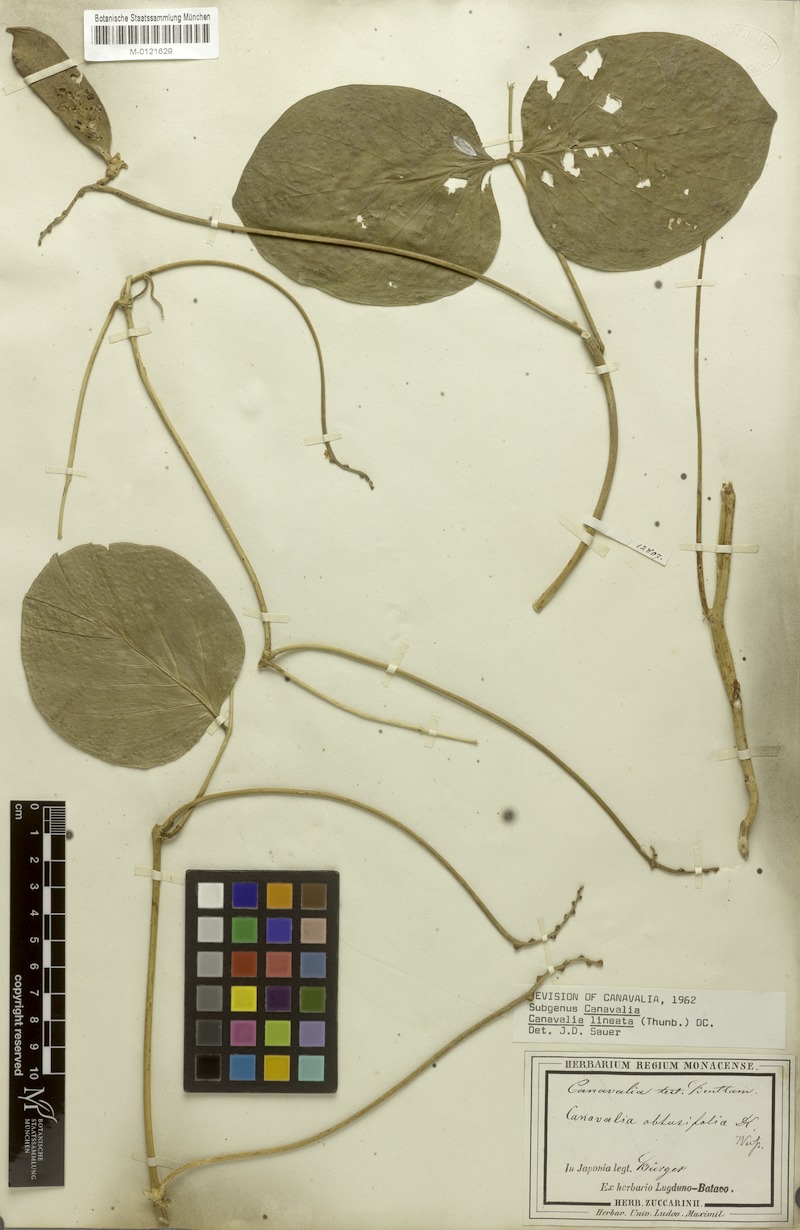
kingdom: Plantae
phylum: Tracheophyta
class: Magnoliopsida
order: Fabales
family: Fabaceae
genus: Canavalia
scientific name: Canavalia lineata
